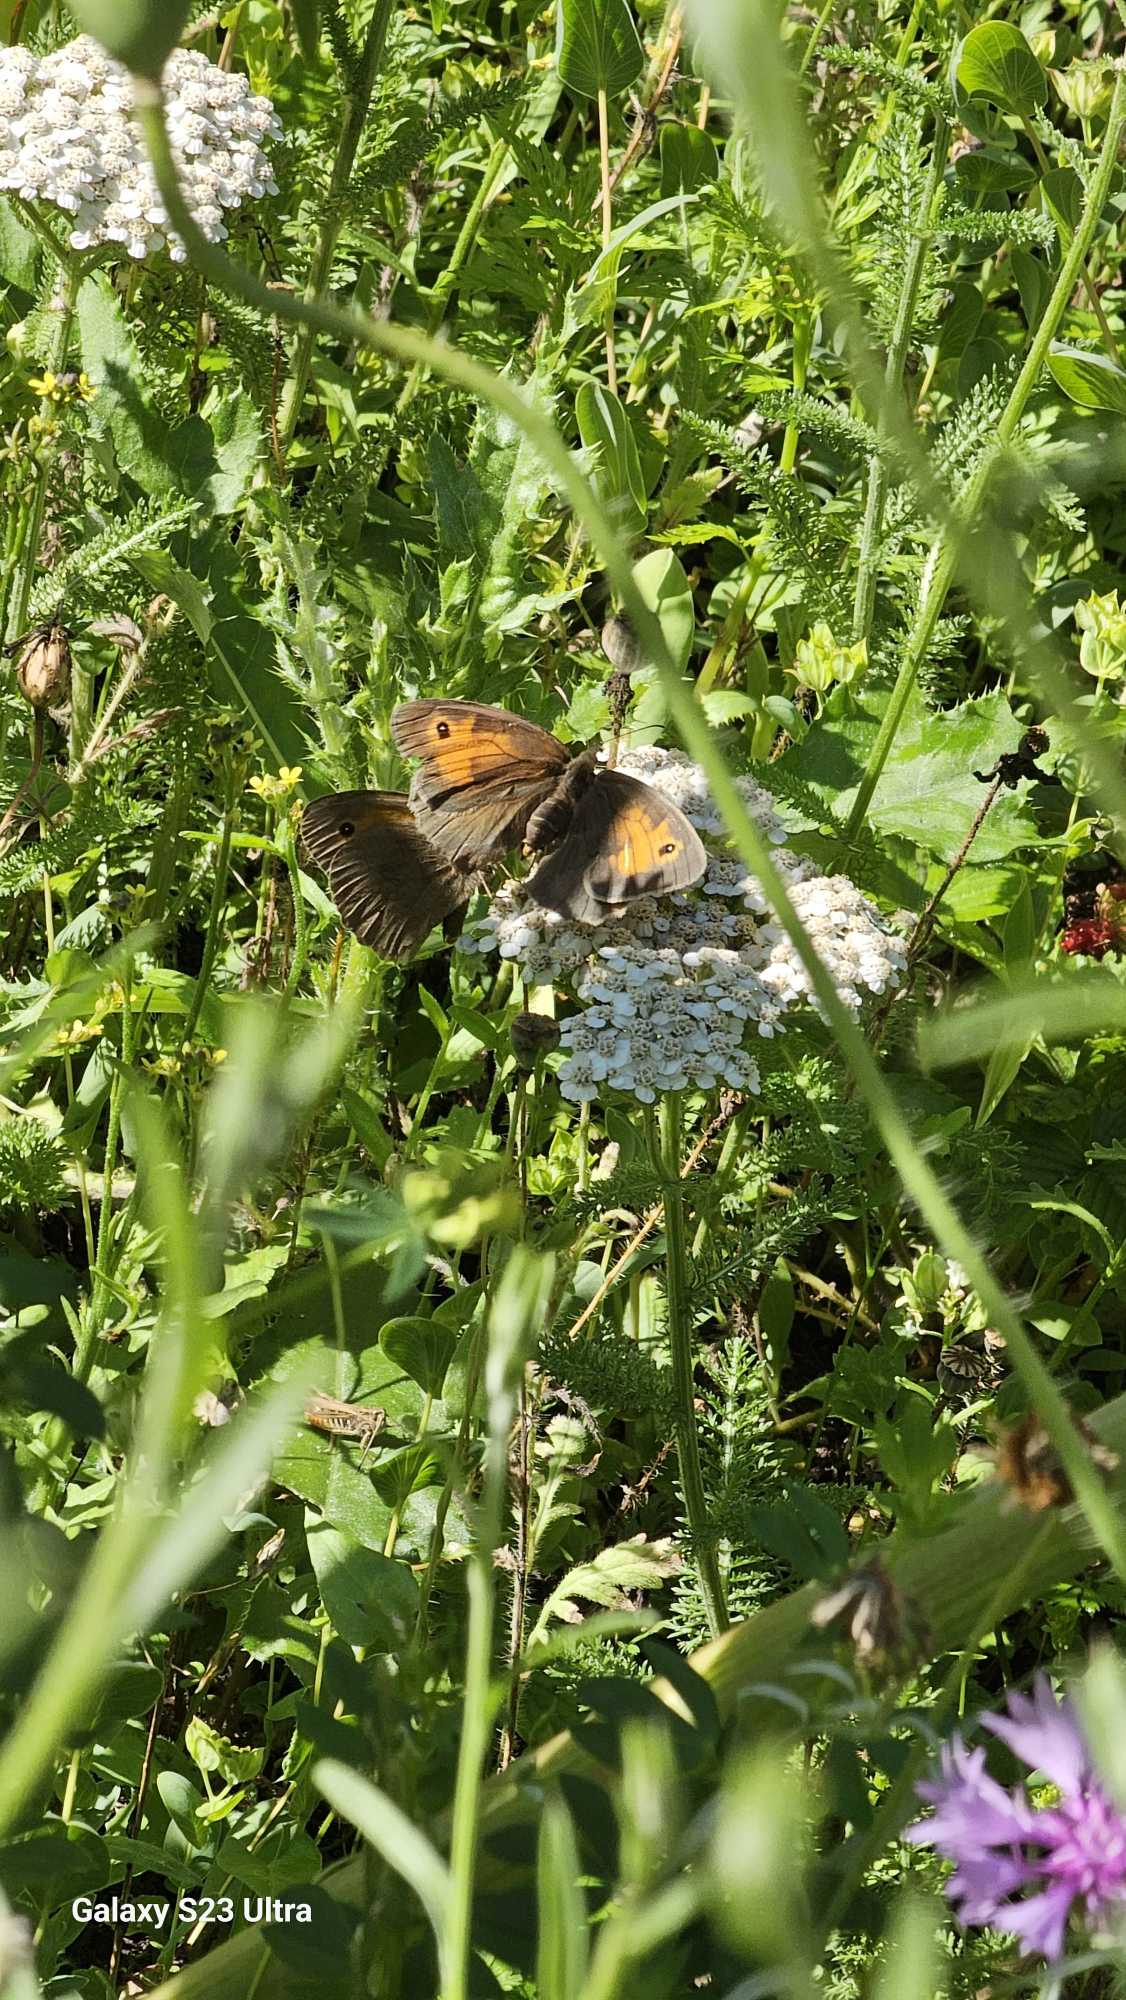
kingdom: Animalia
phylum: Arthropoda
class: Insecta
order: Lepidoptera
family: Nymphalidae
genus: Maniola
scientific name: Maniola jurtina
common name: Græsrandøje
